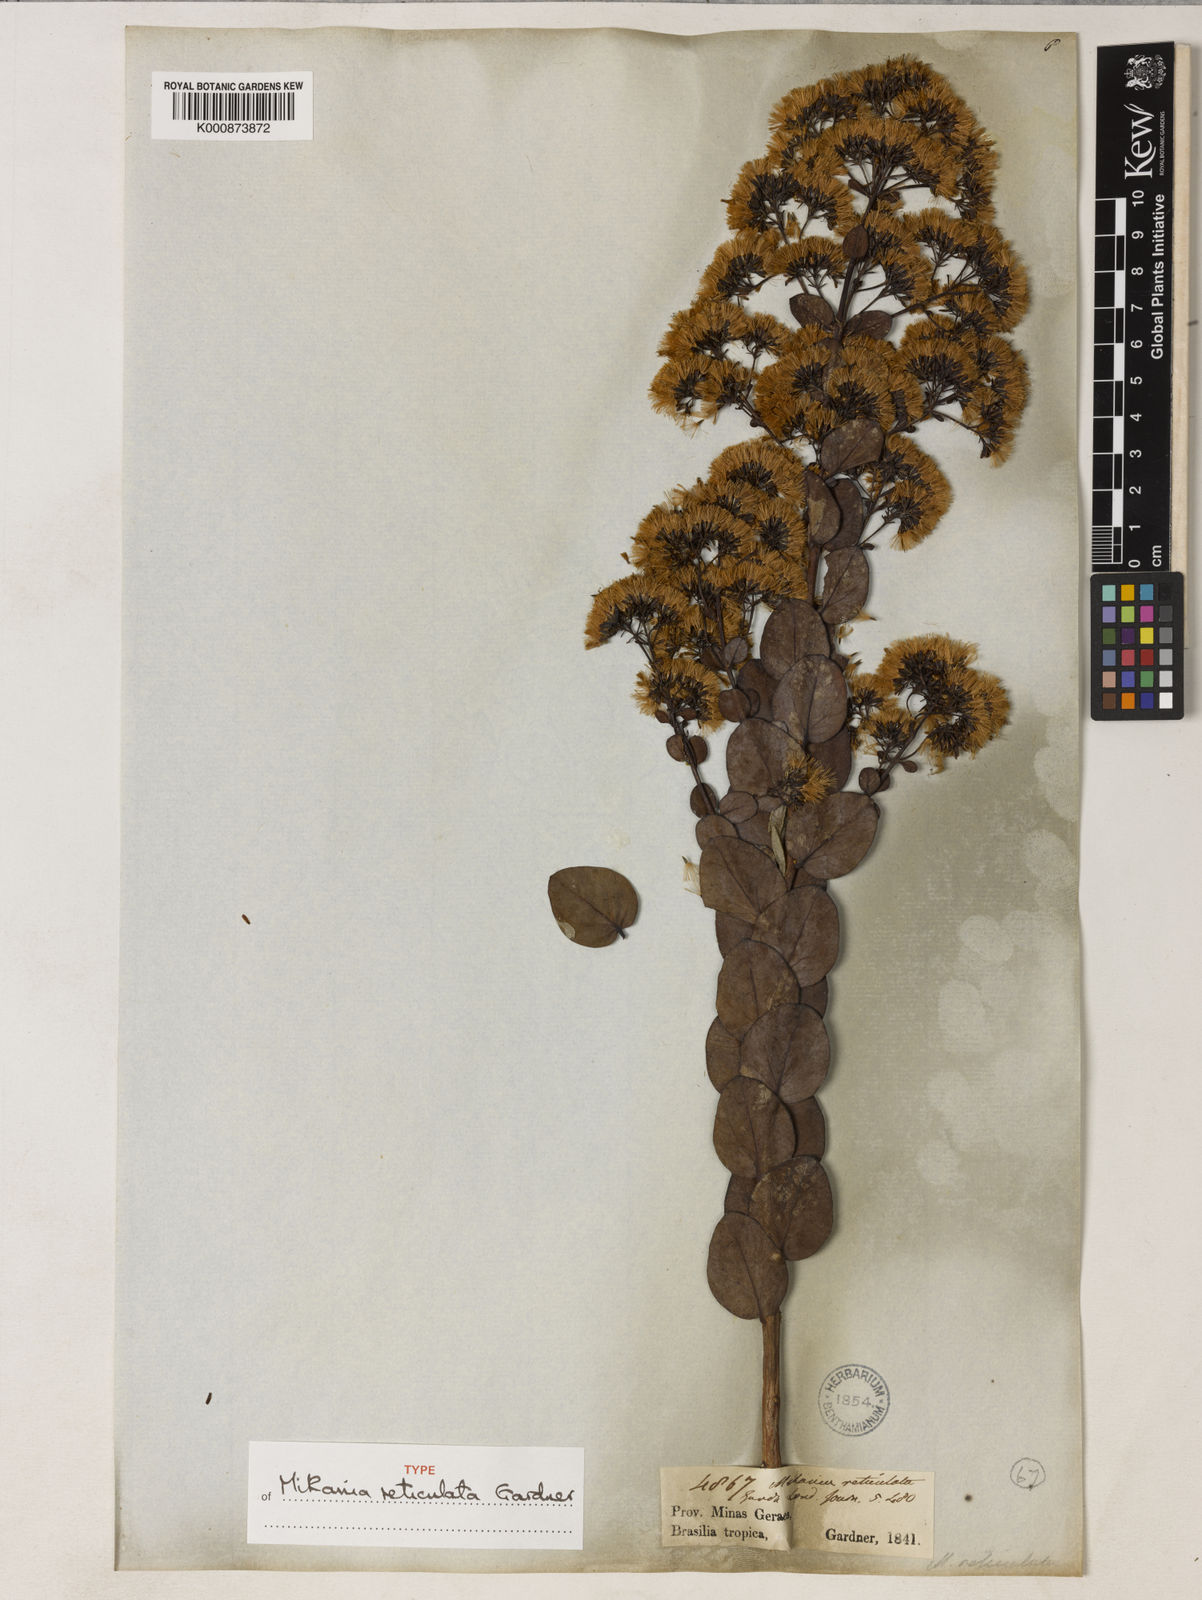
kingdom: Plantae
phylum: Tracheophyta
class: Magnoliopsida
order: Asterales
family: Asteraceae
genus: Mikania
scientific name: Mikania reticulata
